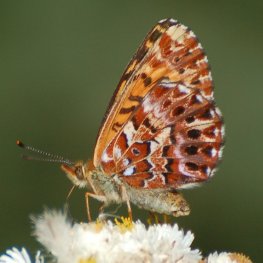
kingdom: Animalia
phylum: Arthropoda
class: Insecta
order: Lepidoptera
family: Nymphalidae
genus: Boloria
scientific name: Boloria chariclea
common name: Arctic Fritillary
